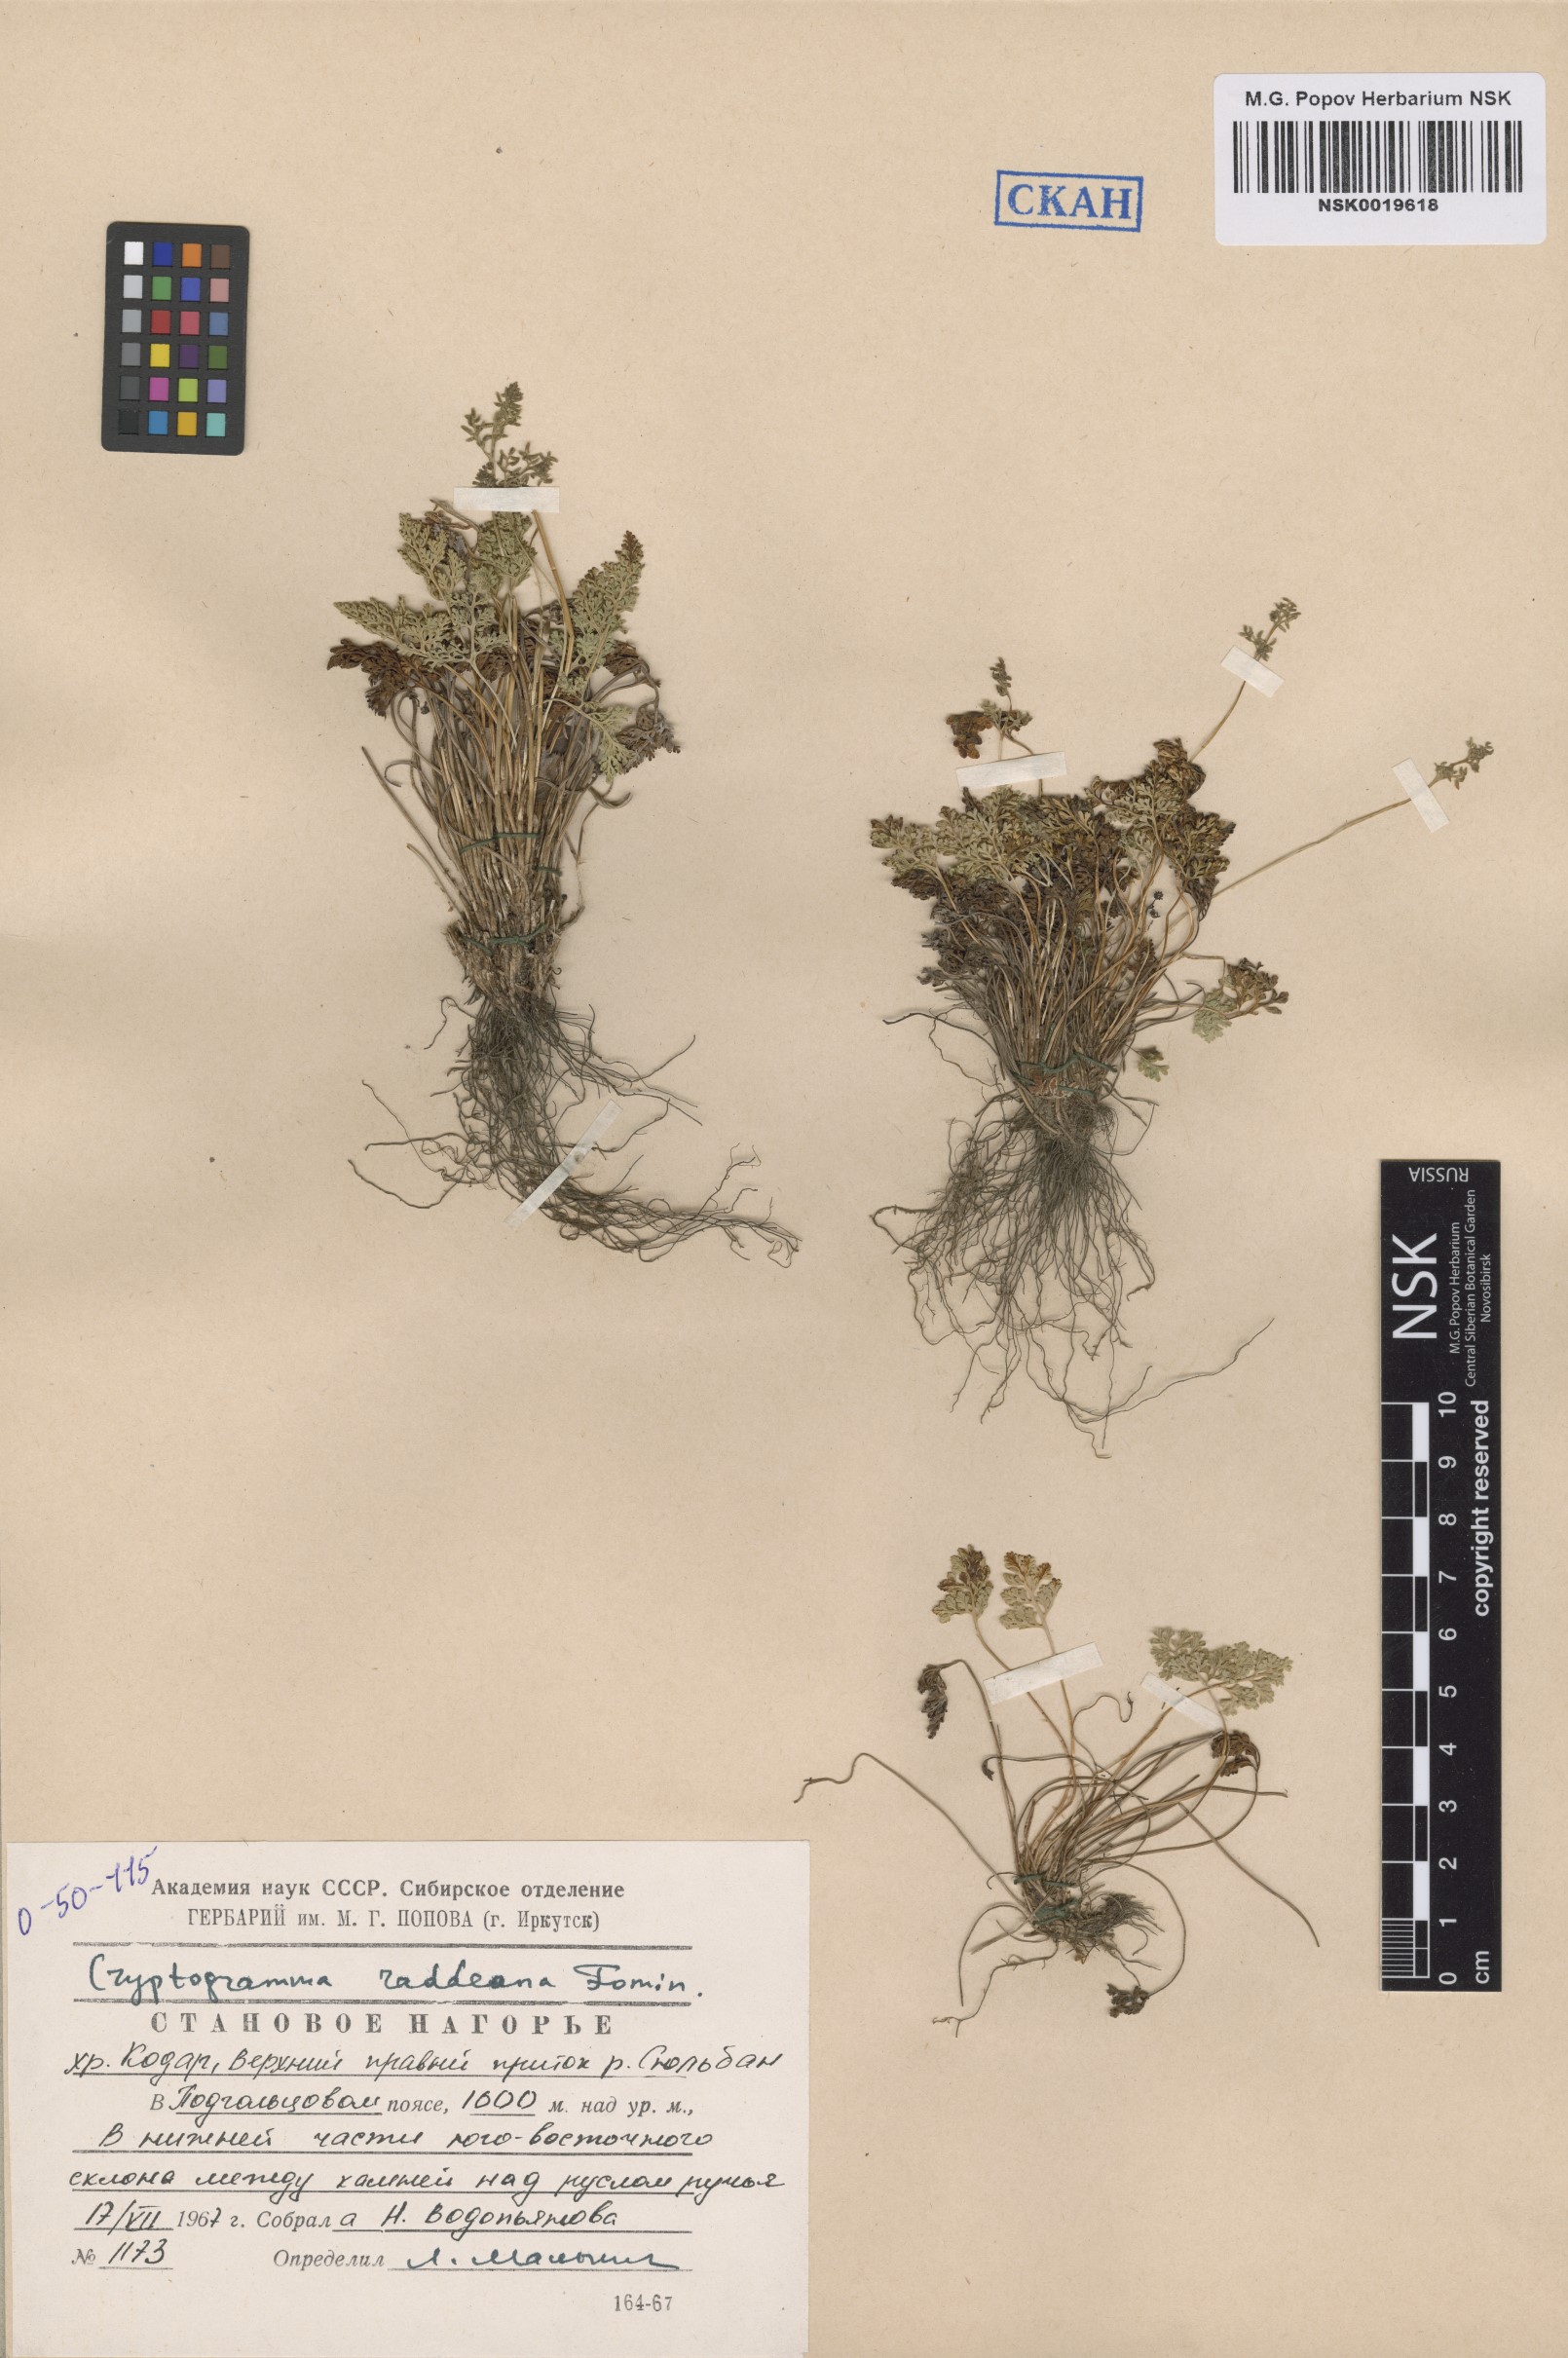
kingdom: Plantae
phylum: Tracheophyta
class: Polypodiopsida
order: Polypodiales
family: Pteridaceae
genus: Cryptogramma
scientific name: Cryptogramma brunoniana
